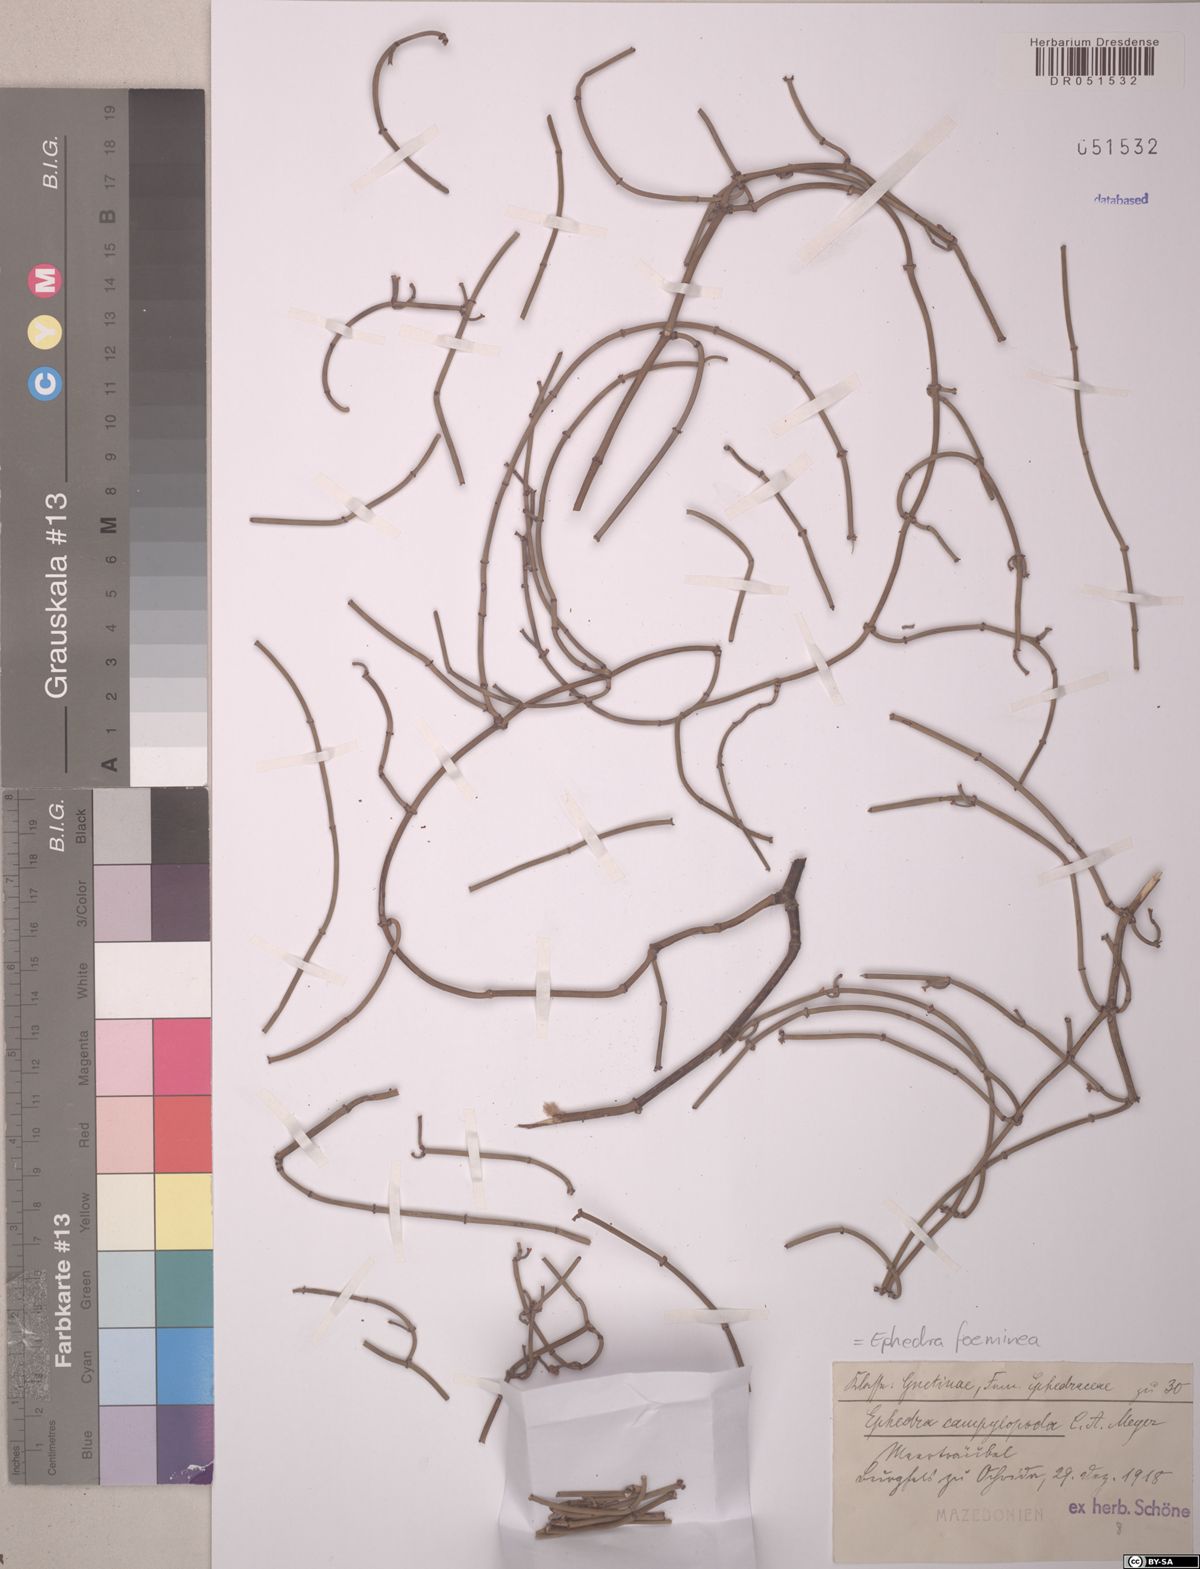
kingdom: Plantae
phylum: Tracheophyta
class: Gnetopsida
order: Ephedrales
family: Ephedraceae
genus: Ephedra
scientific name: Ephedra foeminea
